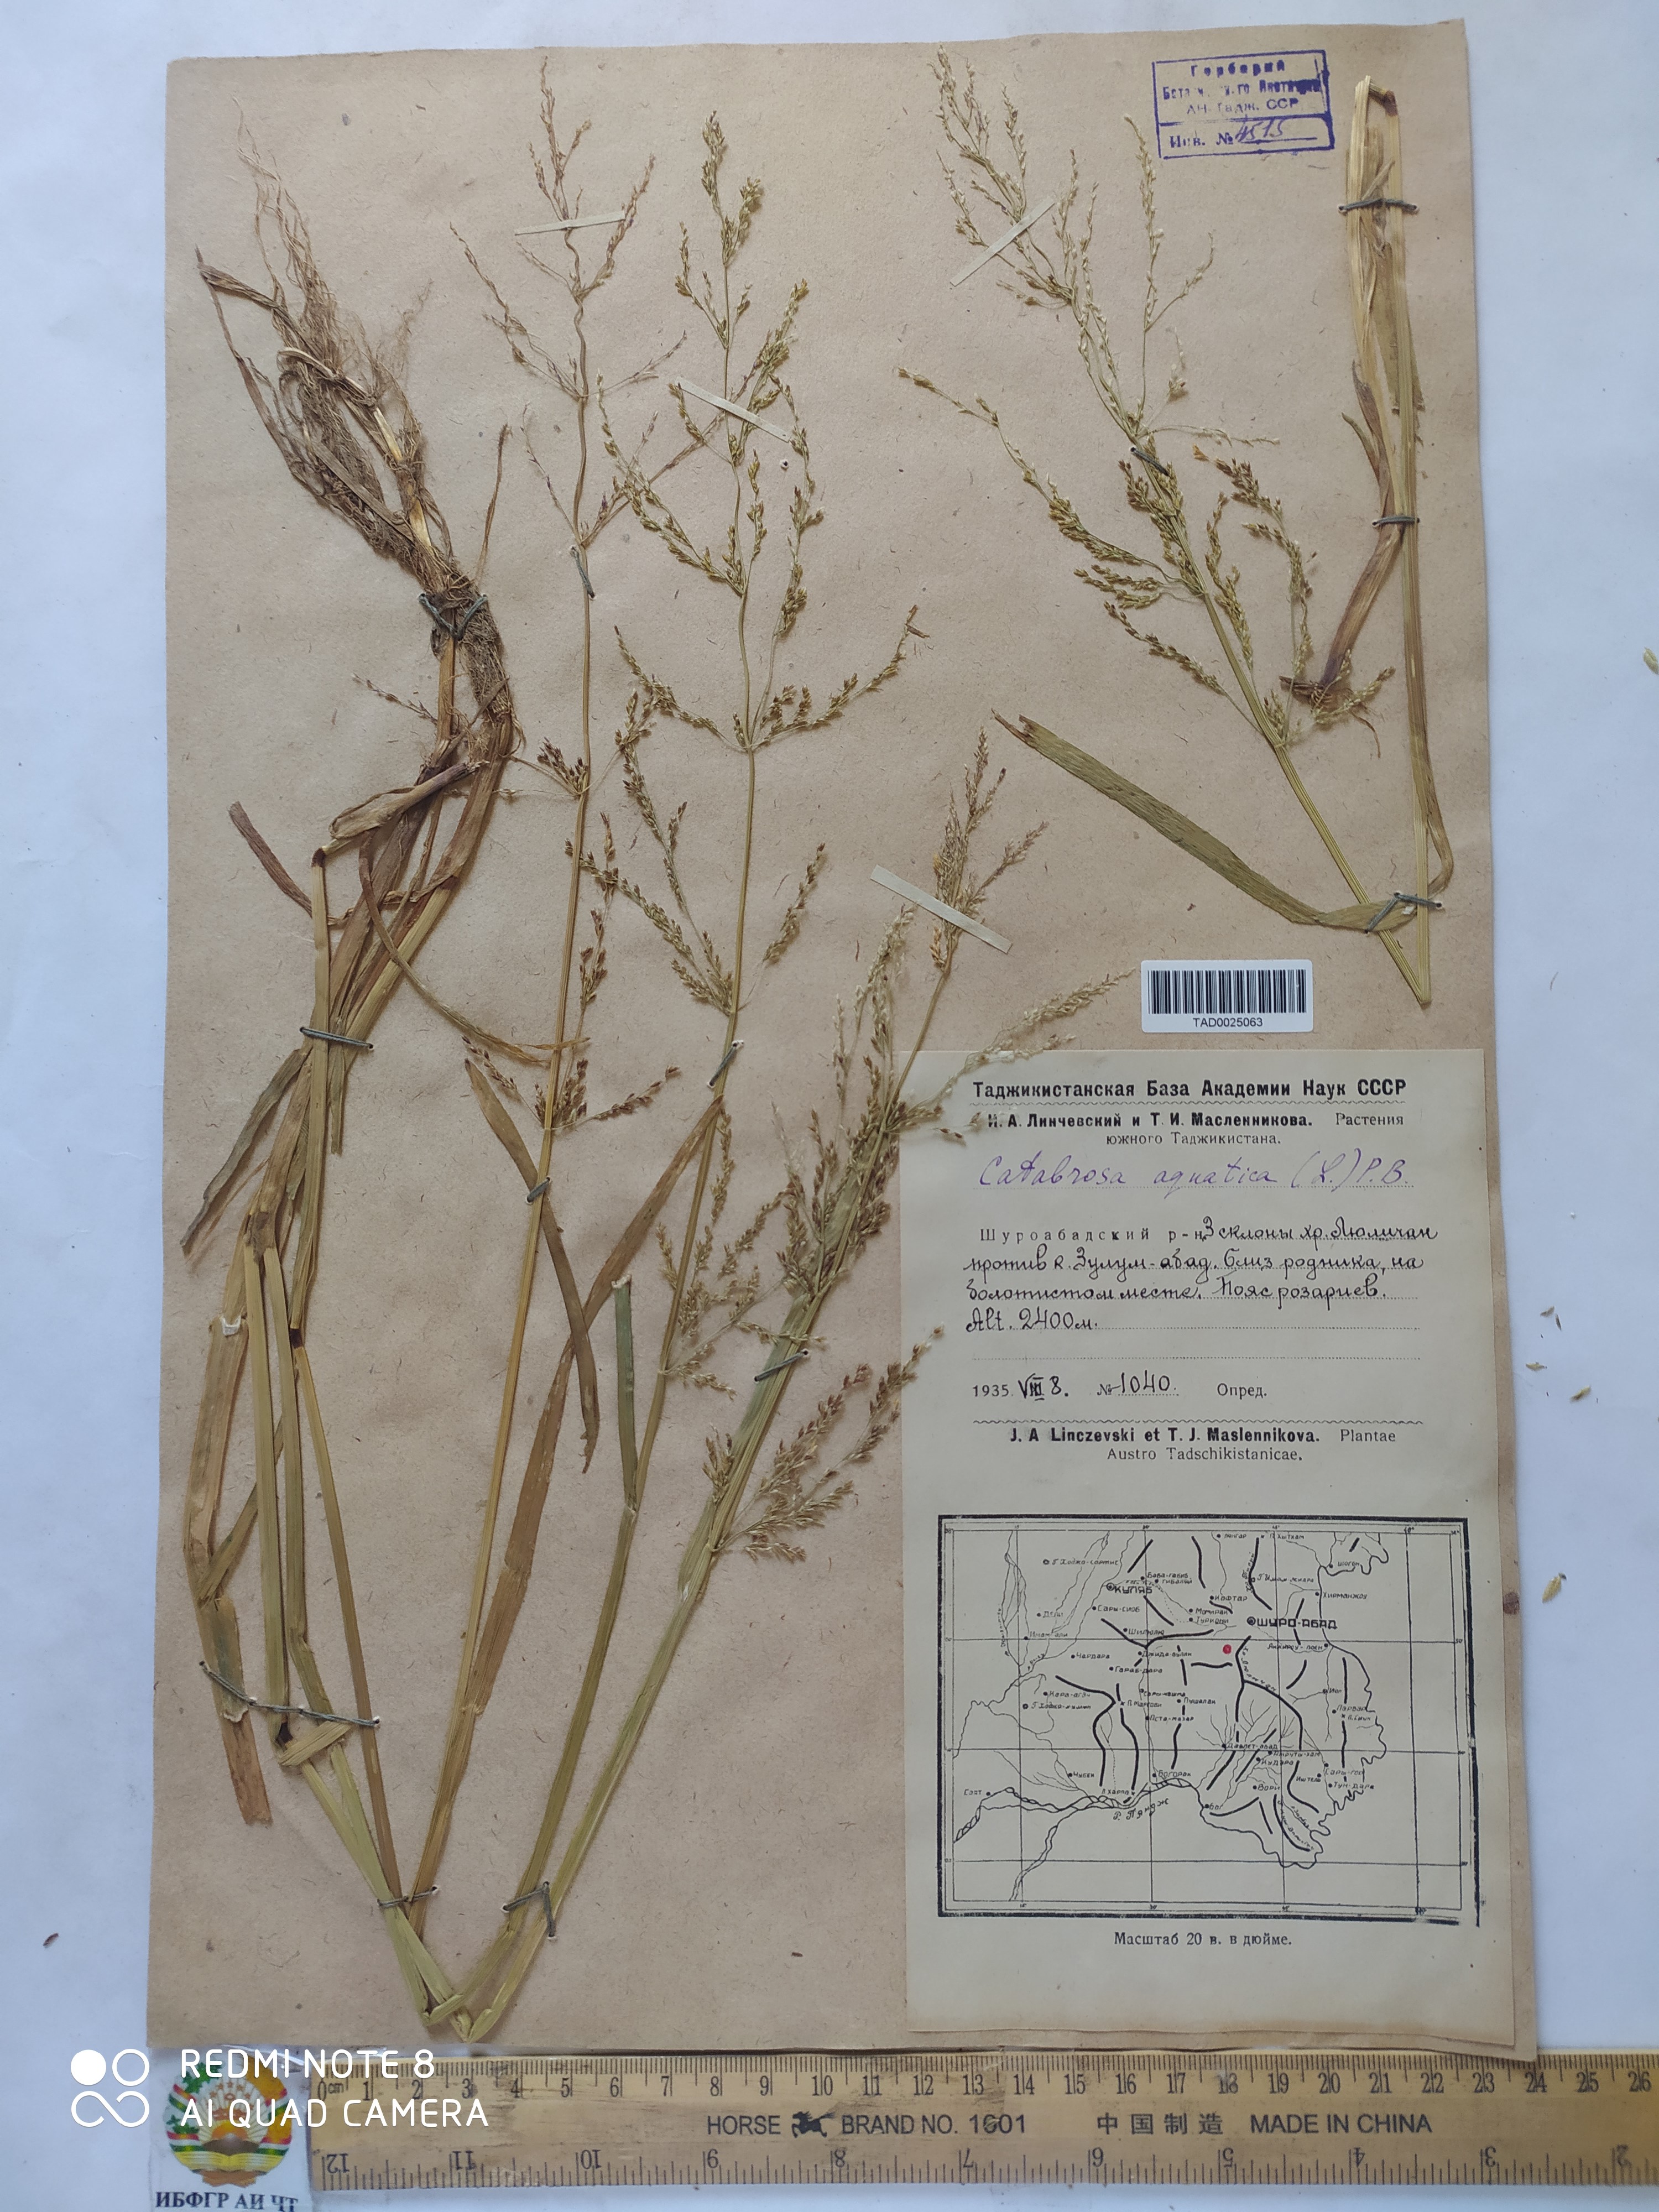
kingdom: Plantae
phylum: Tracheophyta
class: Liliopsida
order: Poales
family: Poaceae
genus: Catabrosa
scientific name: Catabrosa aquatica
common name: Whorl-grass
